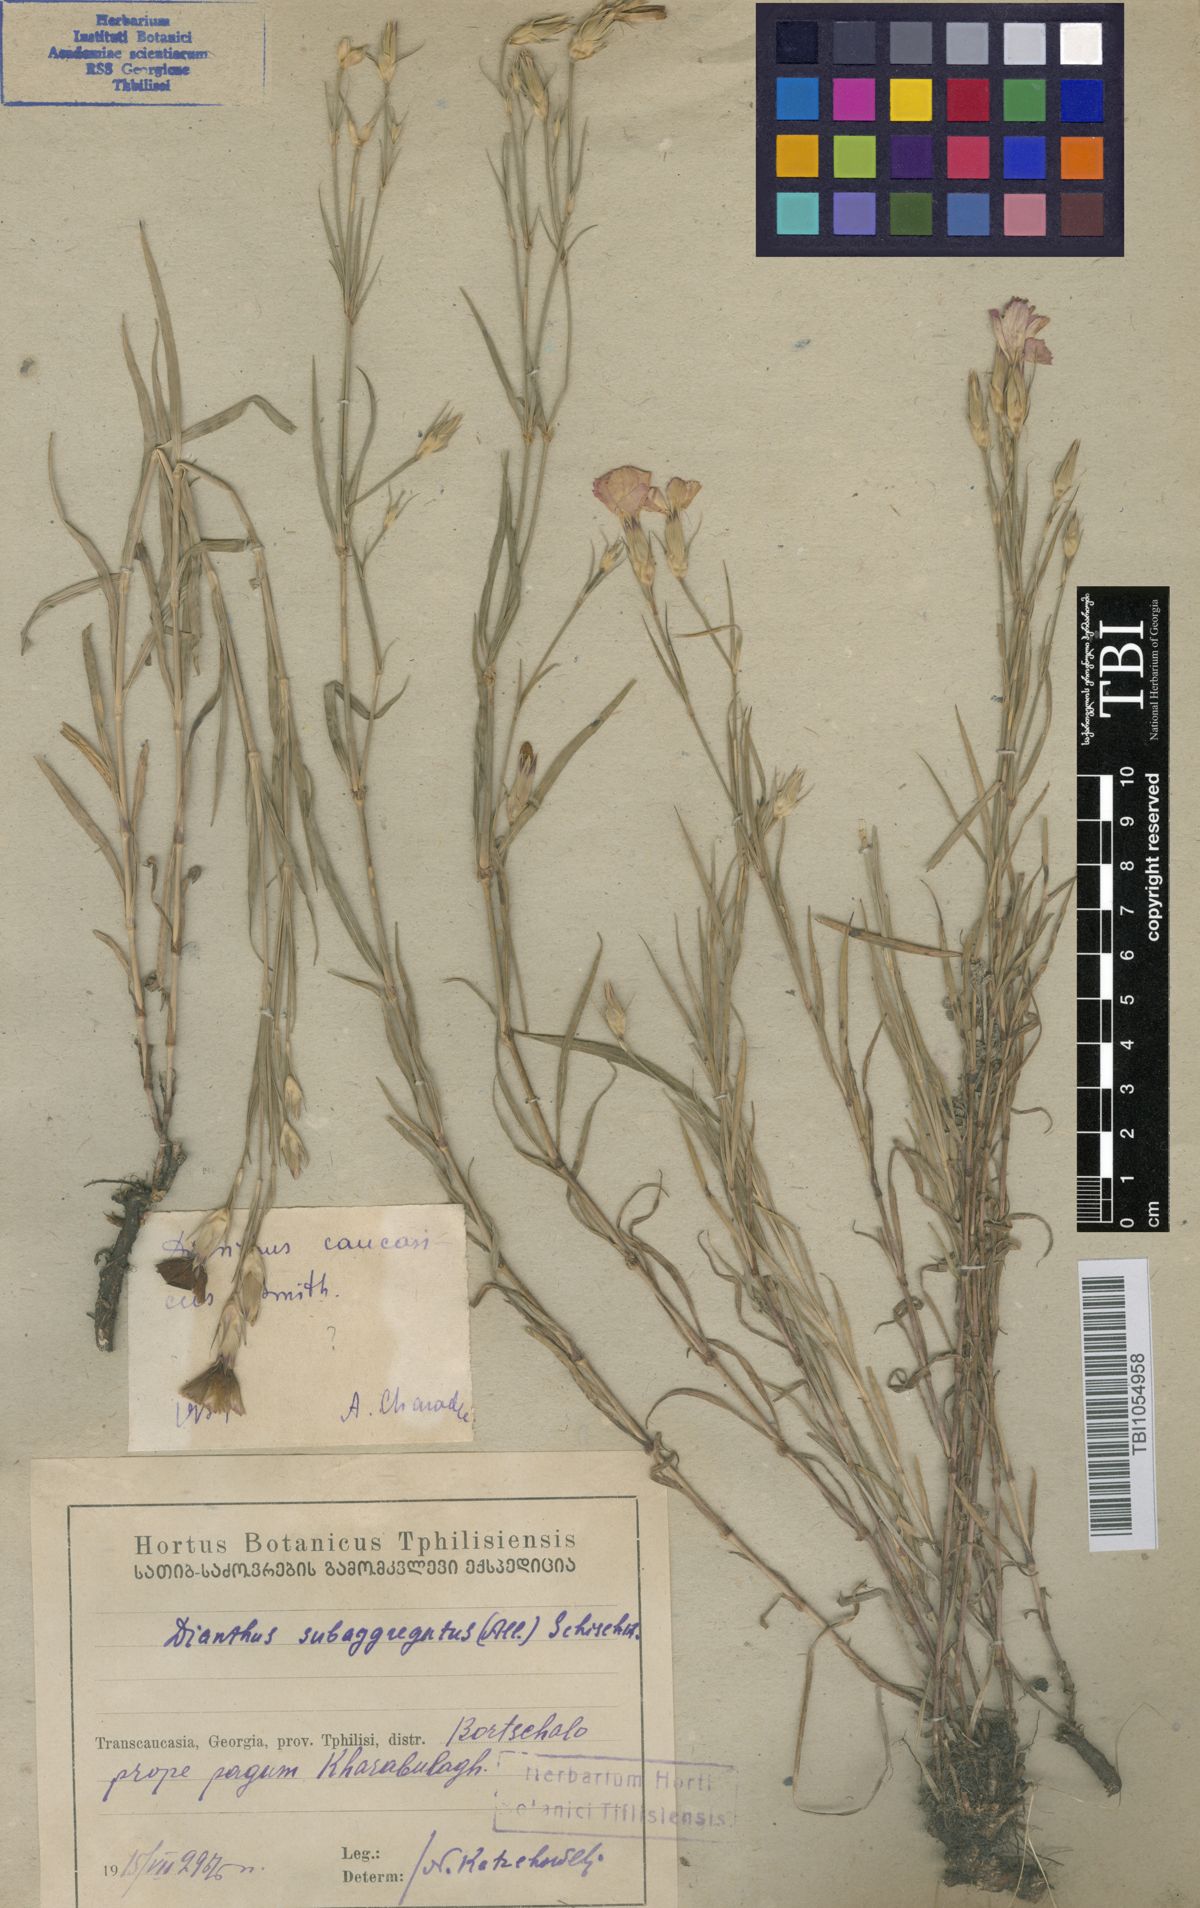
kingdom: Plantae
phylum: Tracheophyta
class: Magnoliopsida
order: Caryophyllales
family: Caryophyllaceae
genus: Dianthus
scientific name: Dianthus caucaseus
